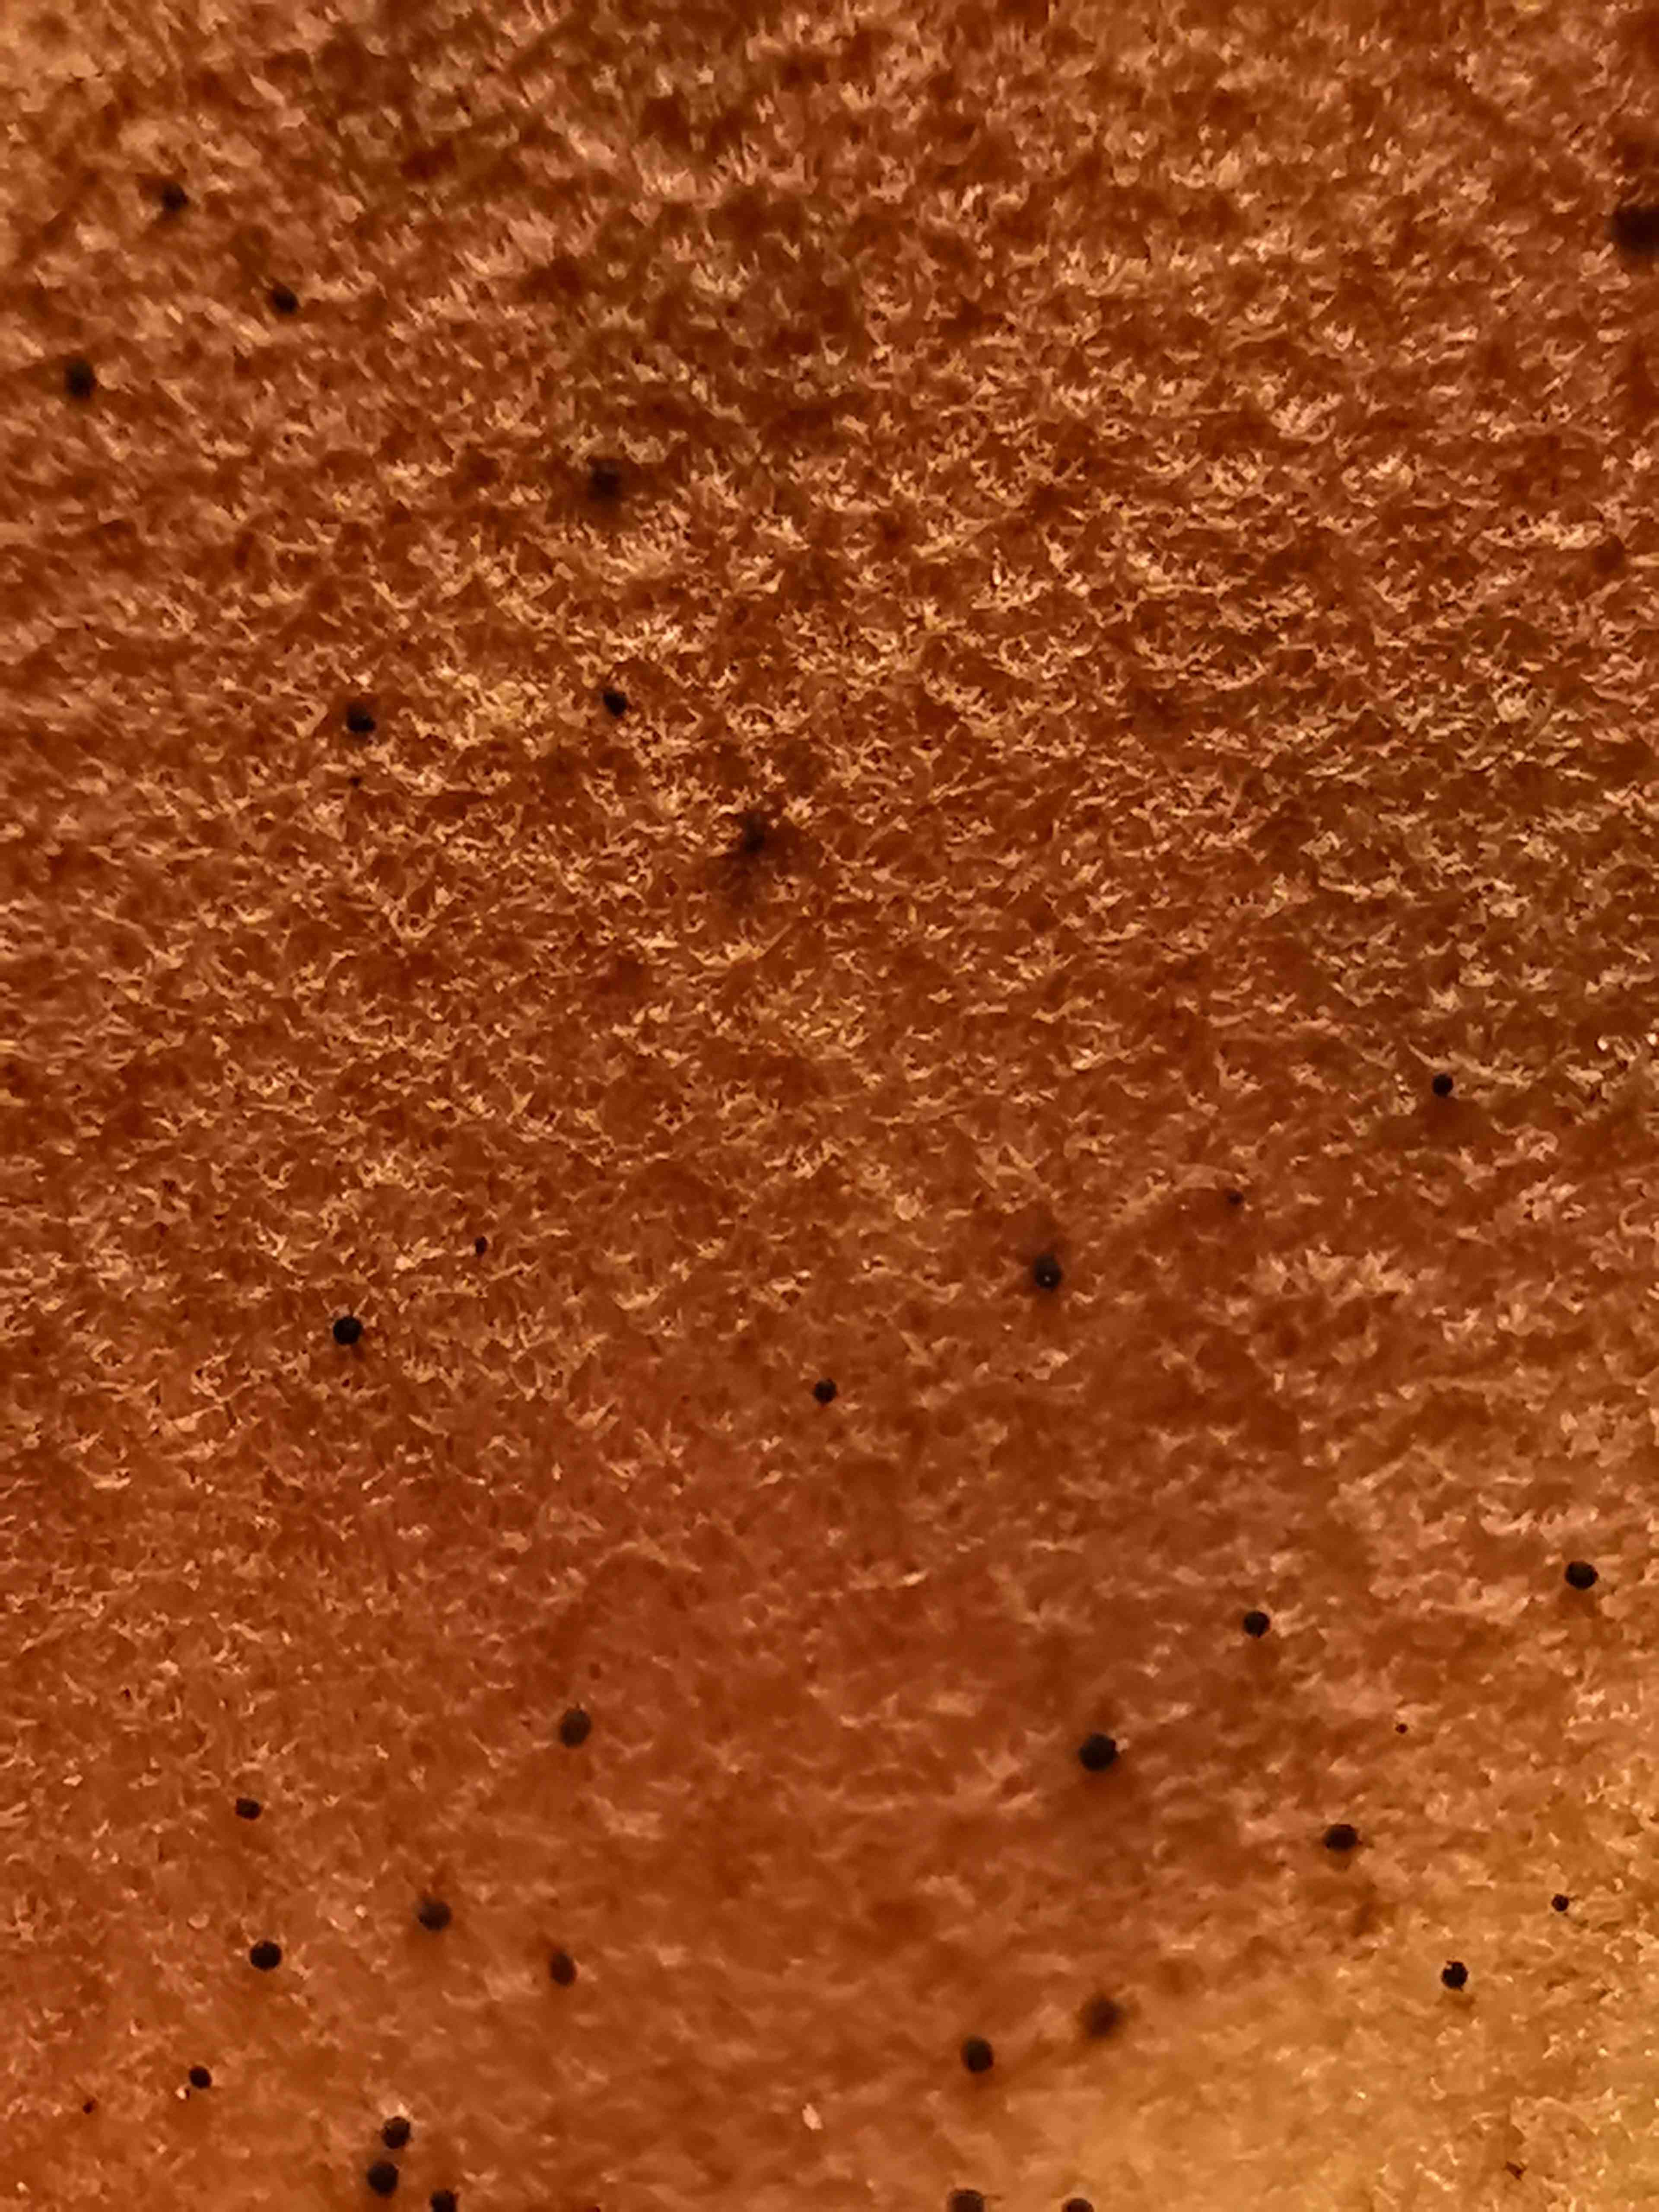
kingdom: Fungi
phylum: Basidiomycota
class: Agaricomycetes
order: Agaricales
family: Tricholomataceae
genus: Clitocybe
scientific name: Clitocybe costata
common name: brunstokket tragthat
